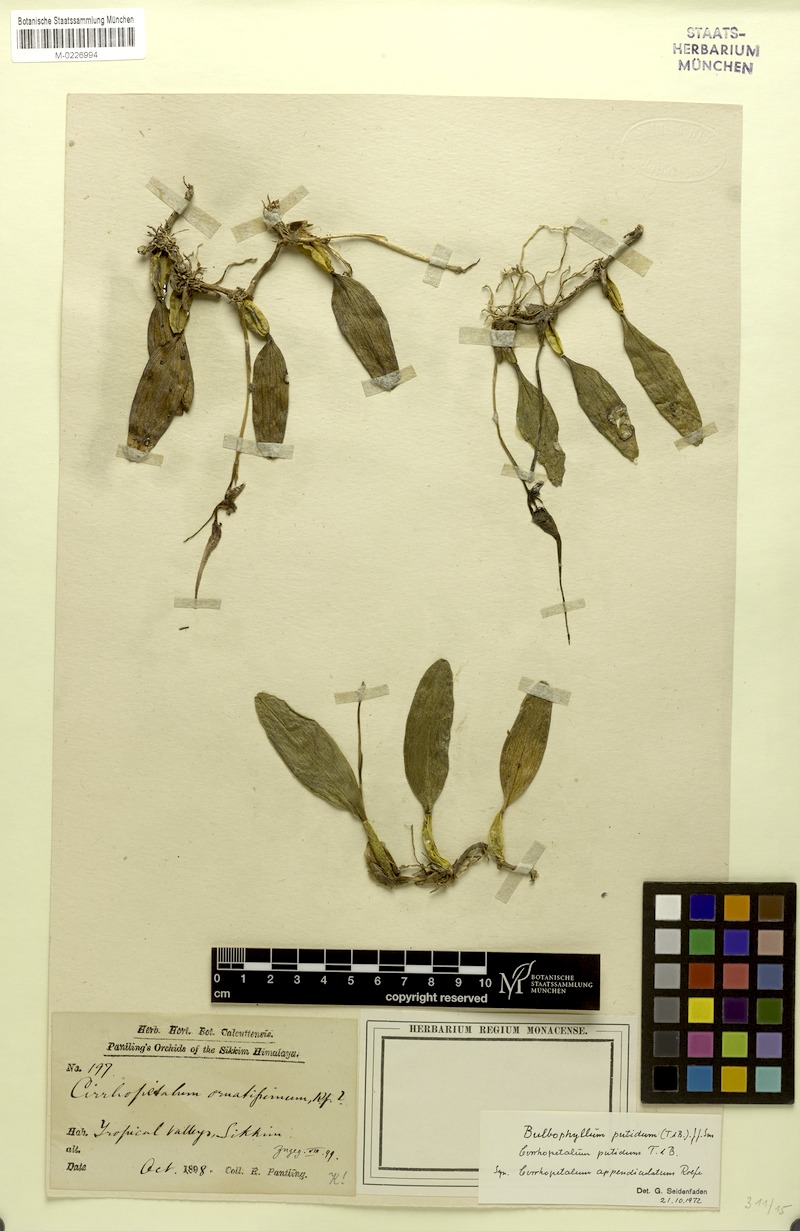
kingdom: Plantae
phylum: Tracheophyta
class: Liliopsida
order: Asparagales
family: Orchidaceae
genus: Bulbophyllum
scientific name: Bulbophyllum putidum
